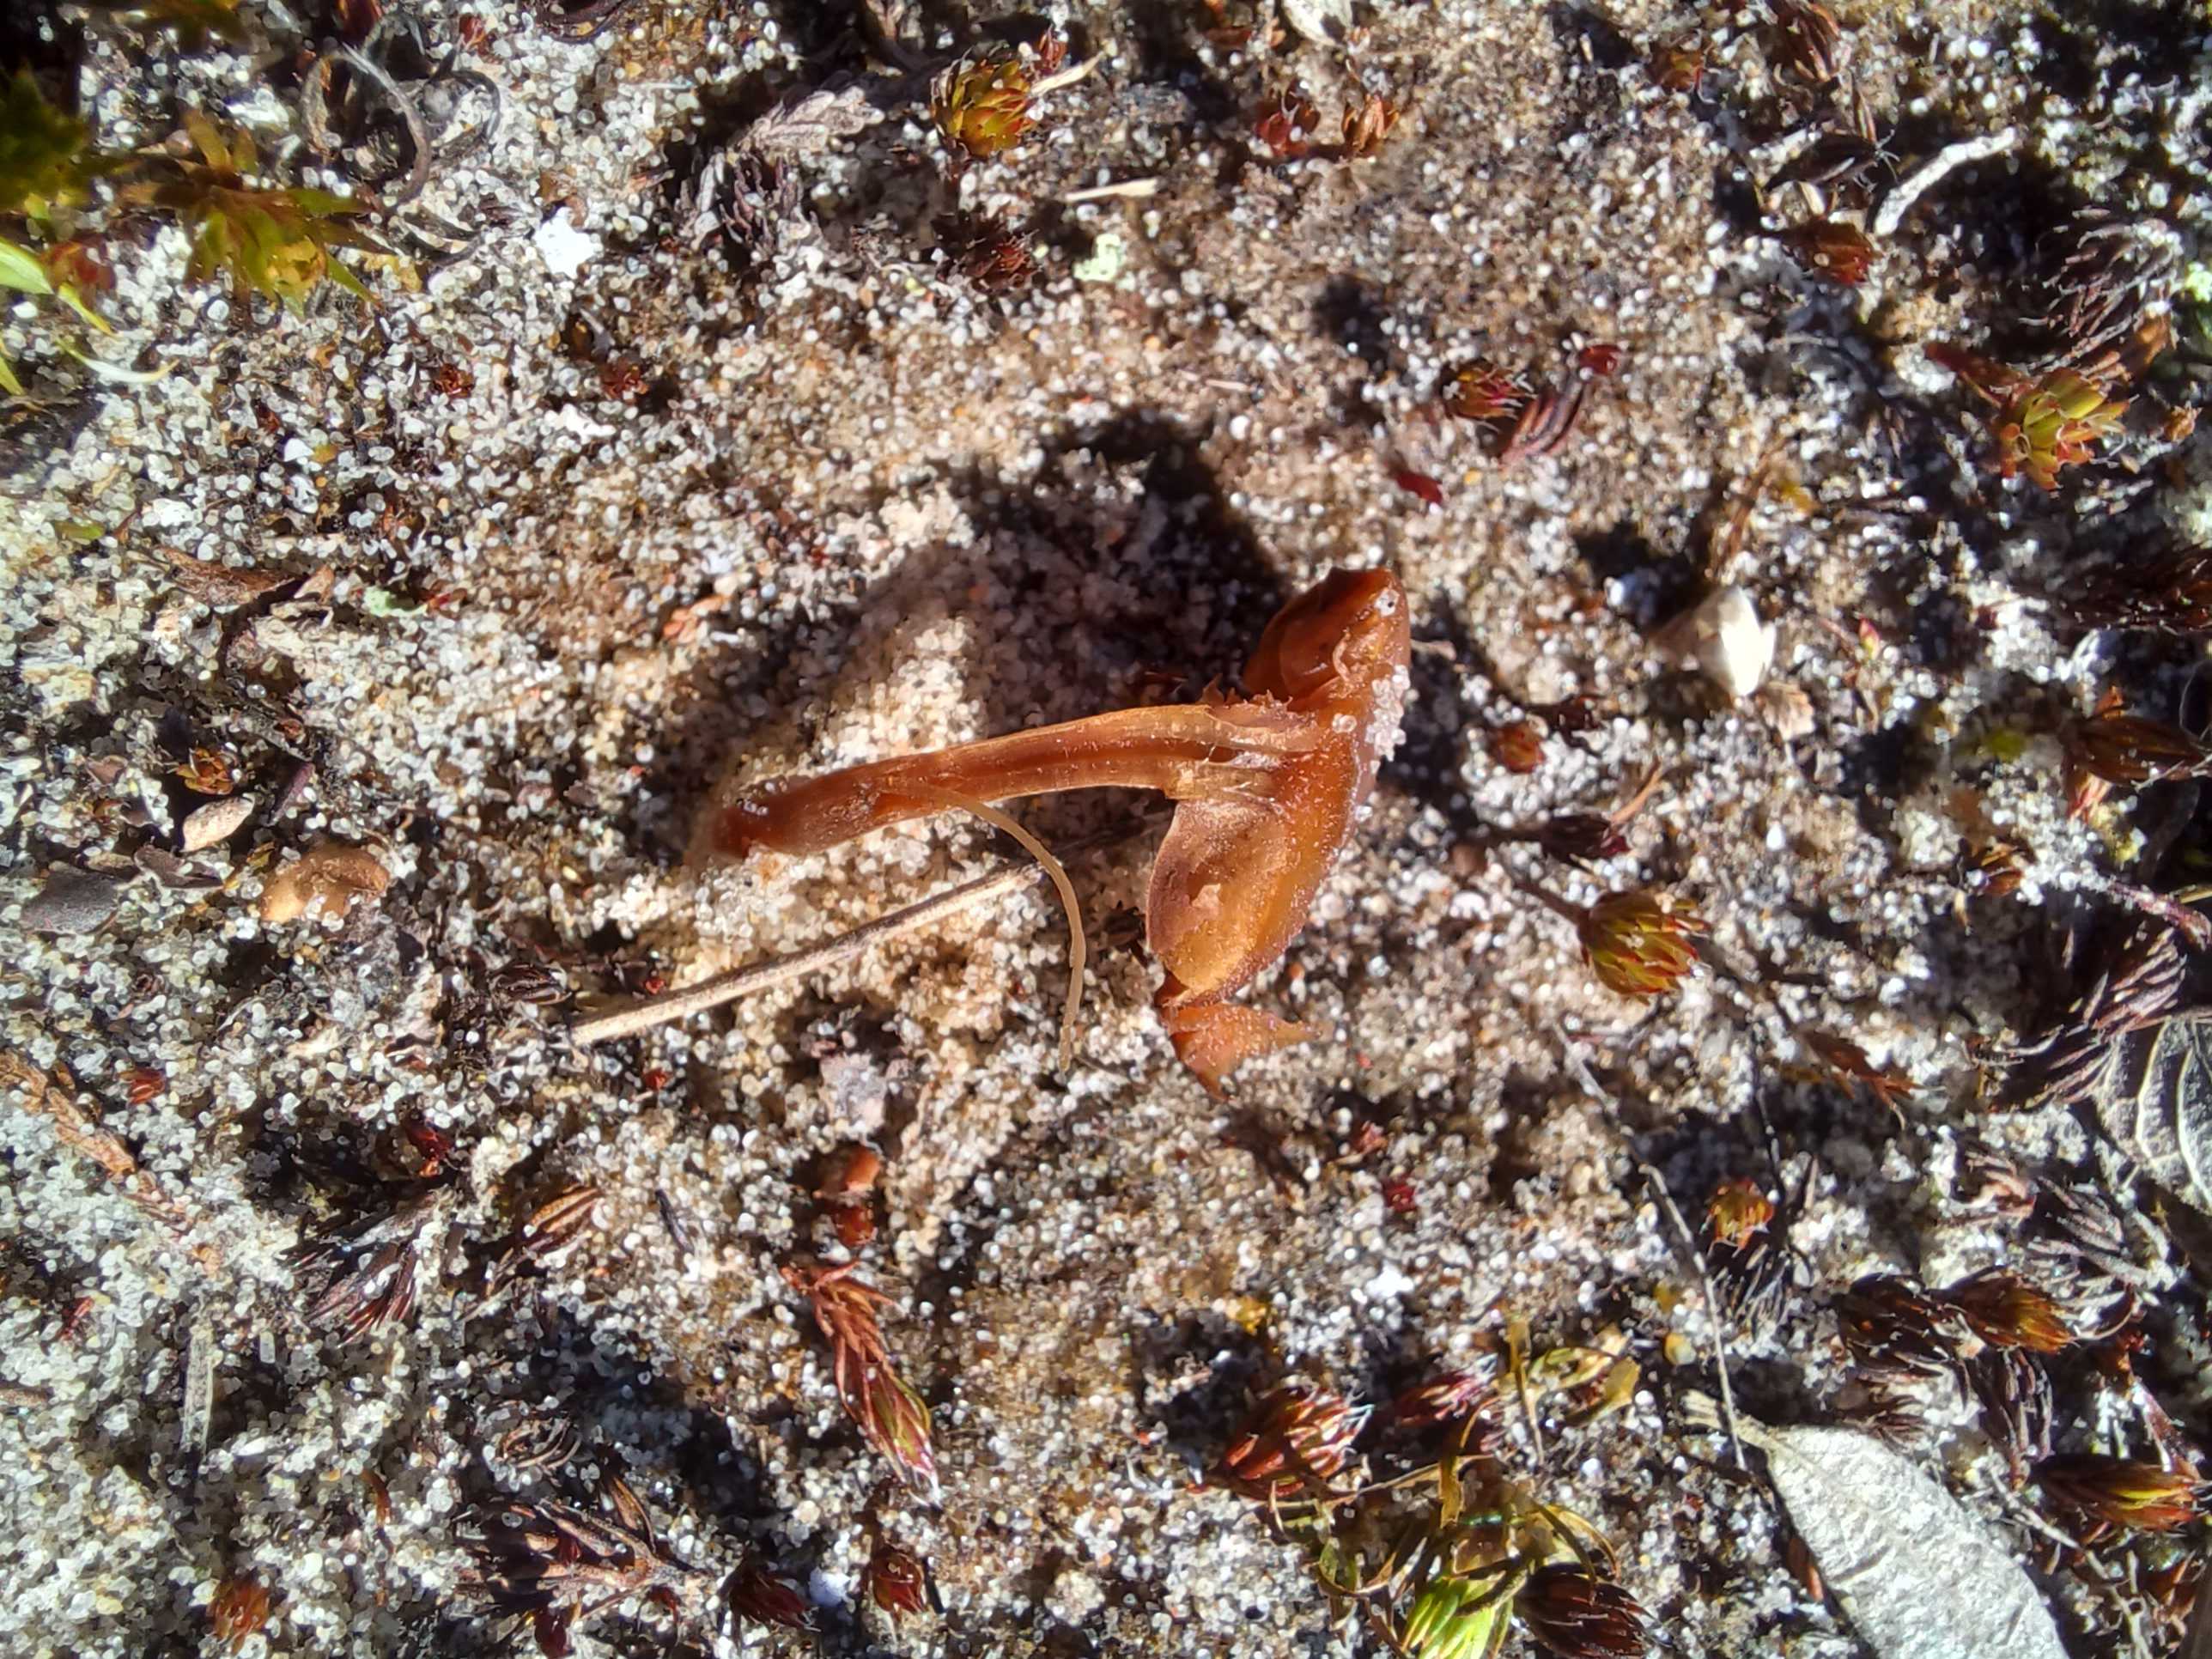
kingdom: Fungi
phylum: Basidiomycota
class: Agaricomycetes
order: Agaricales
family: Strophariaceae
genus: Deconica
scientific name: Deconica montana
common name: rødbrun stråhat
